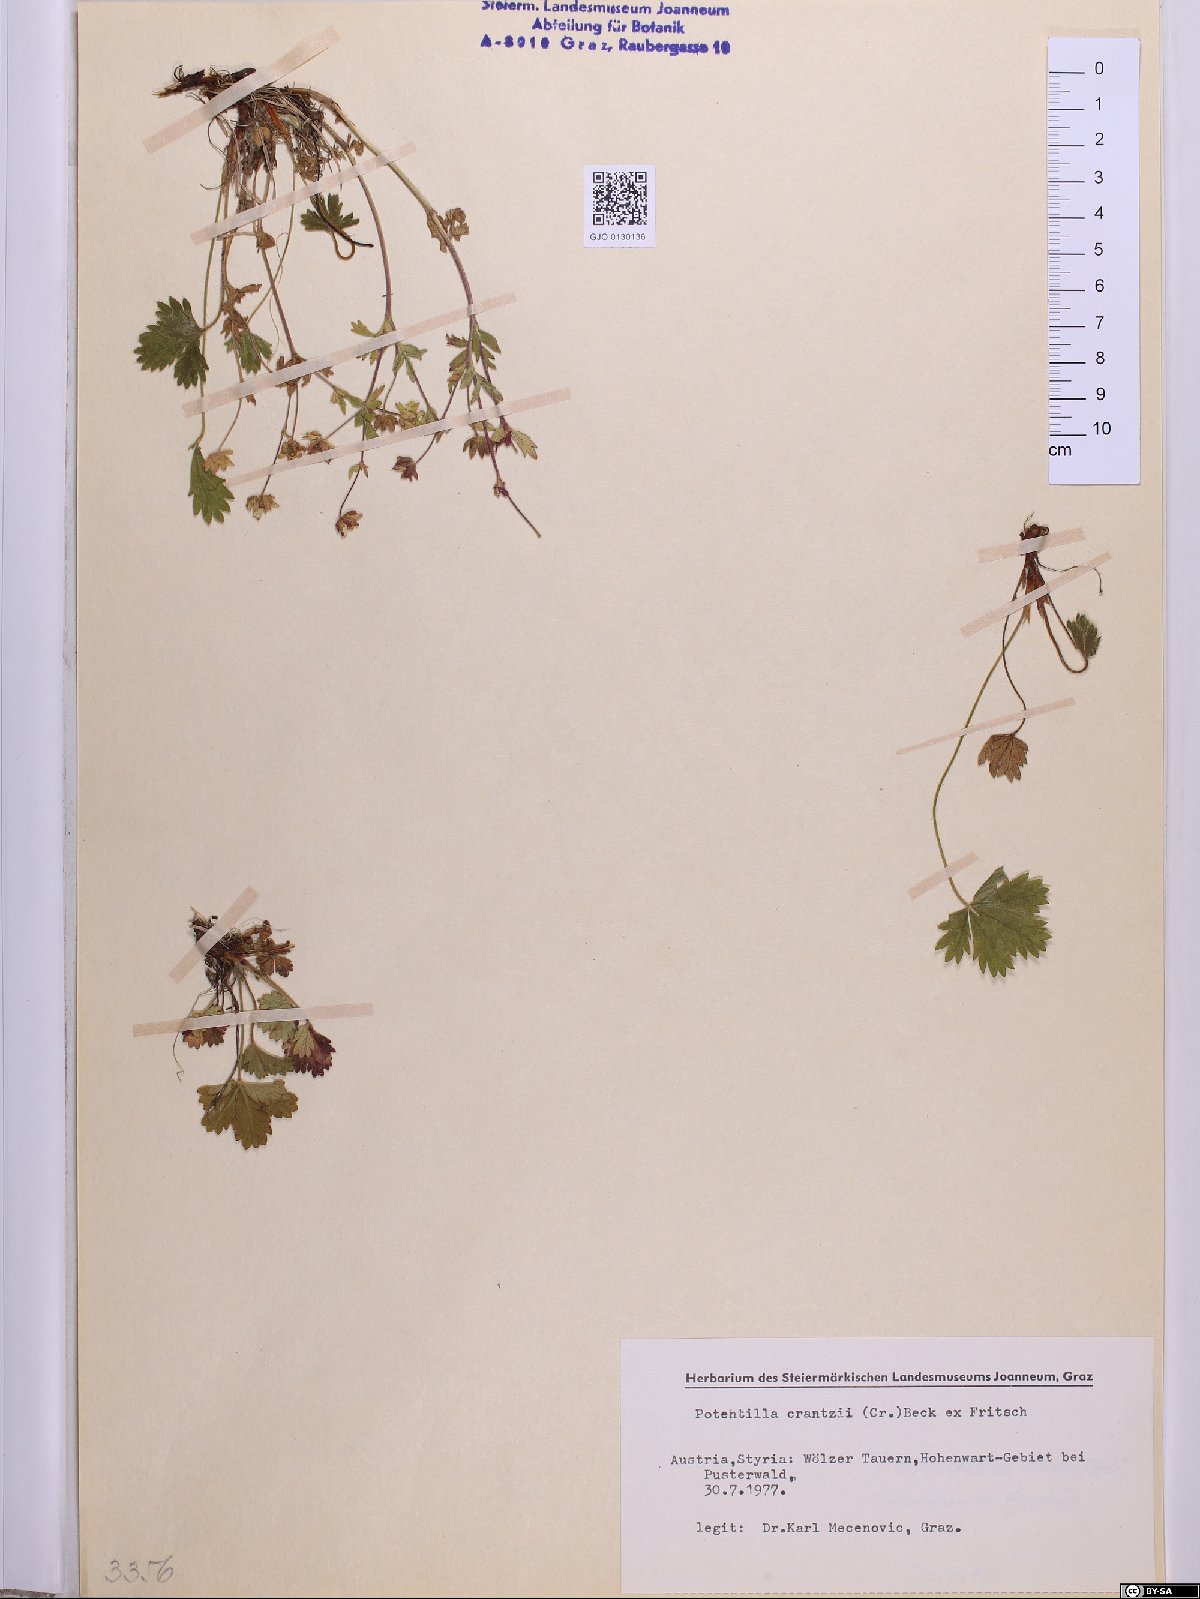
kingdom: Plantae
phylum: Tracheophyta
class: Magnoliopsida
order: Rosales
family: Rosaceae
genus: Potentilla
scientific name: Potentilla crantzii
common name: Alpine cinquefoil
